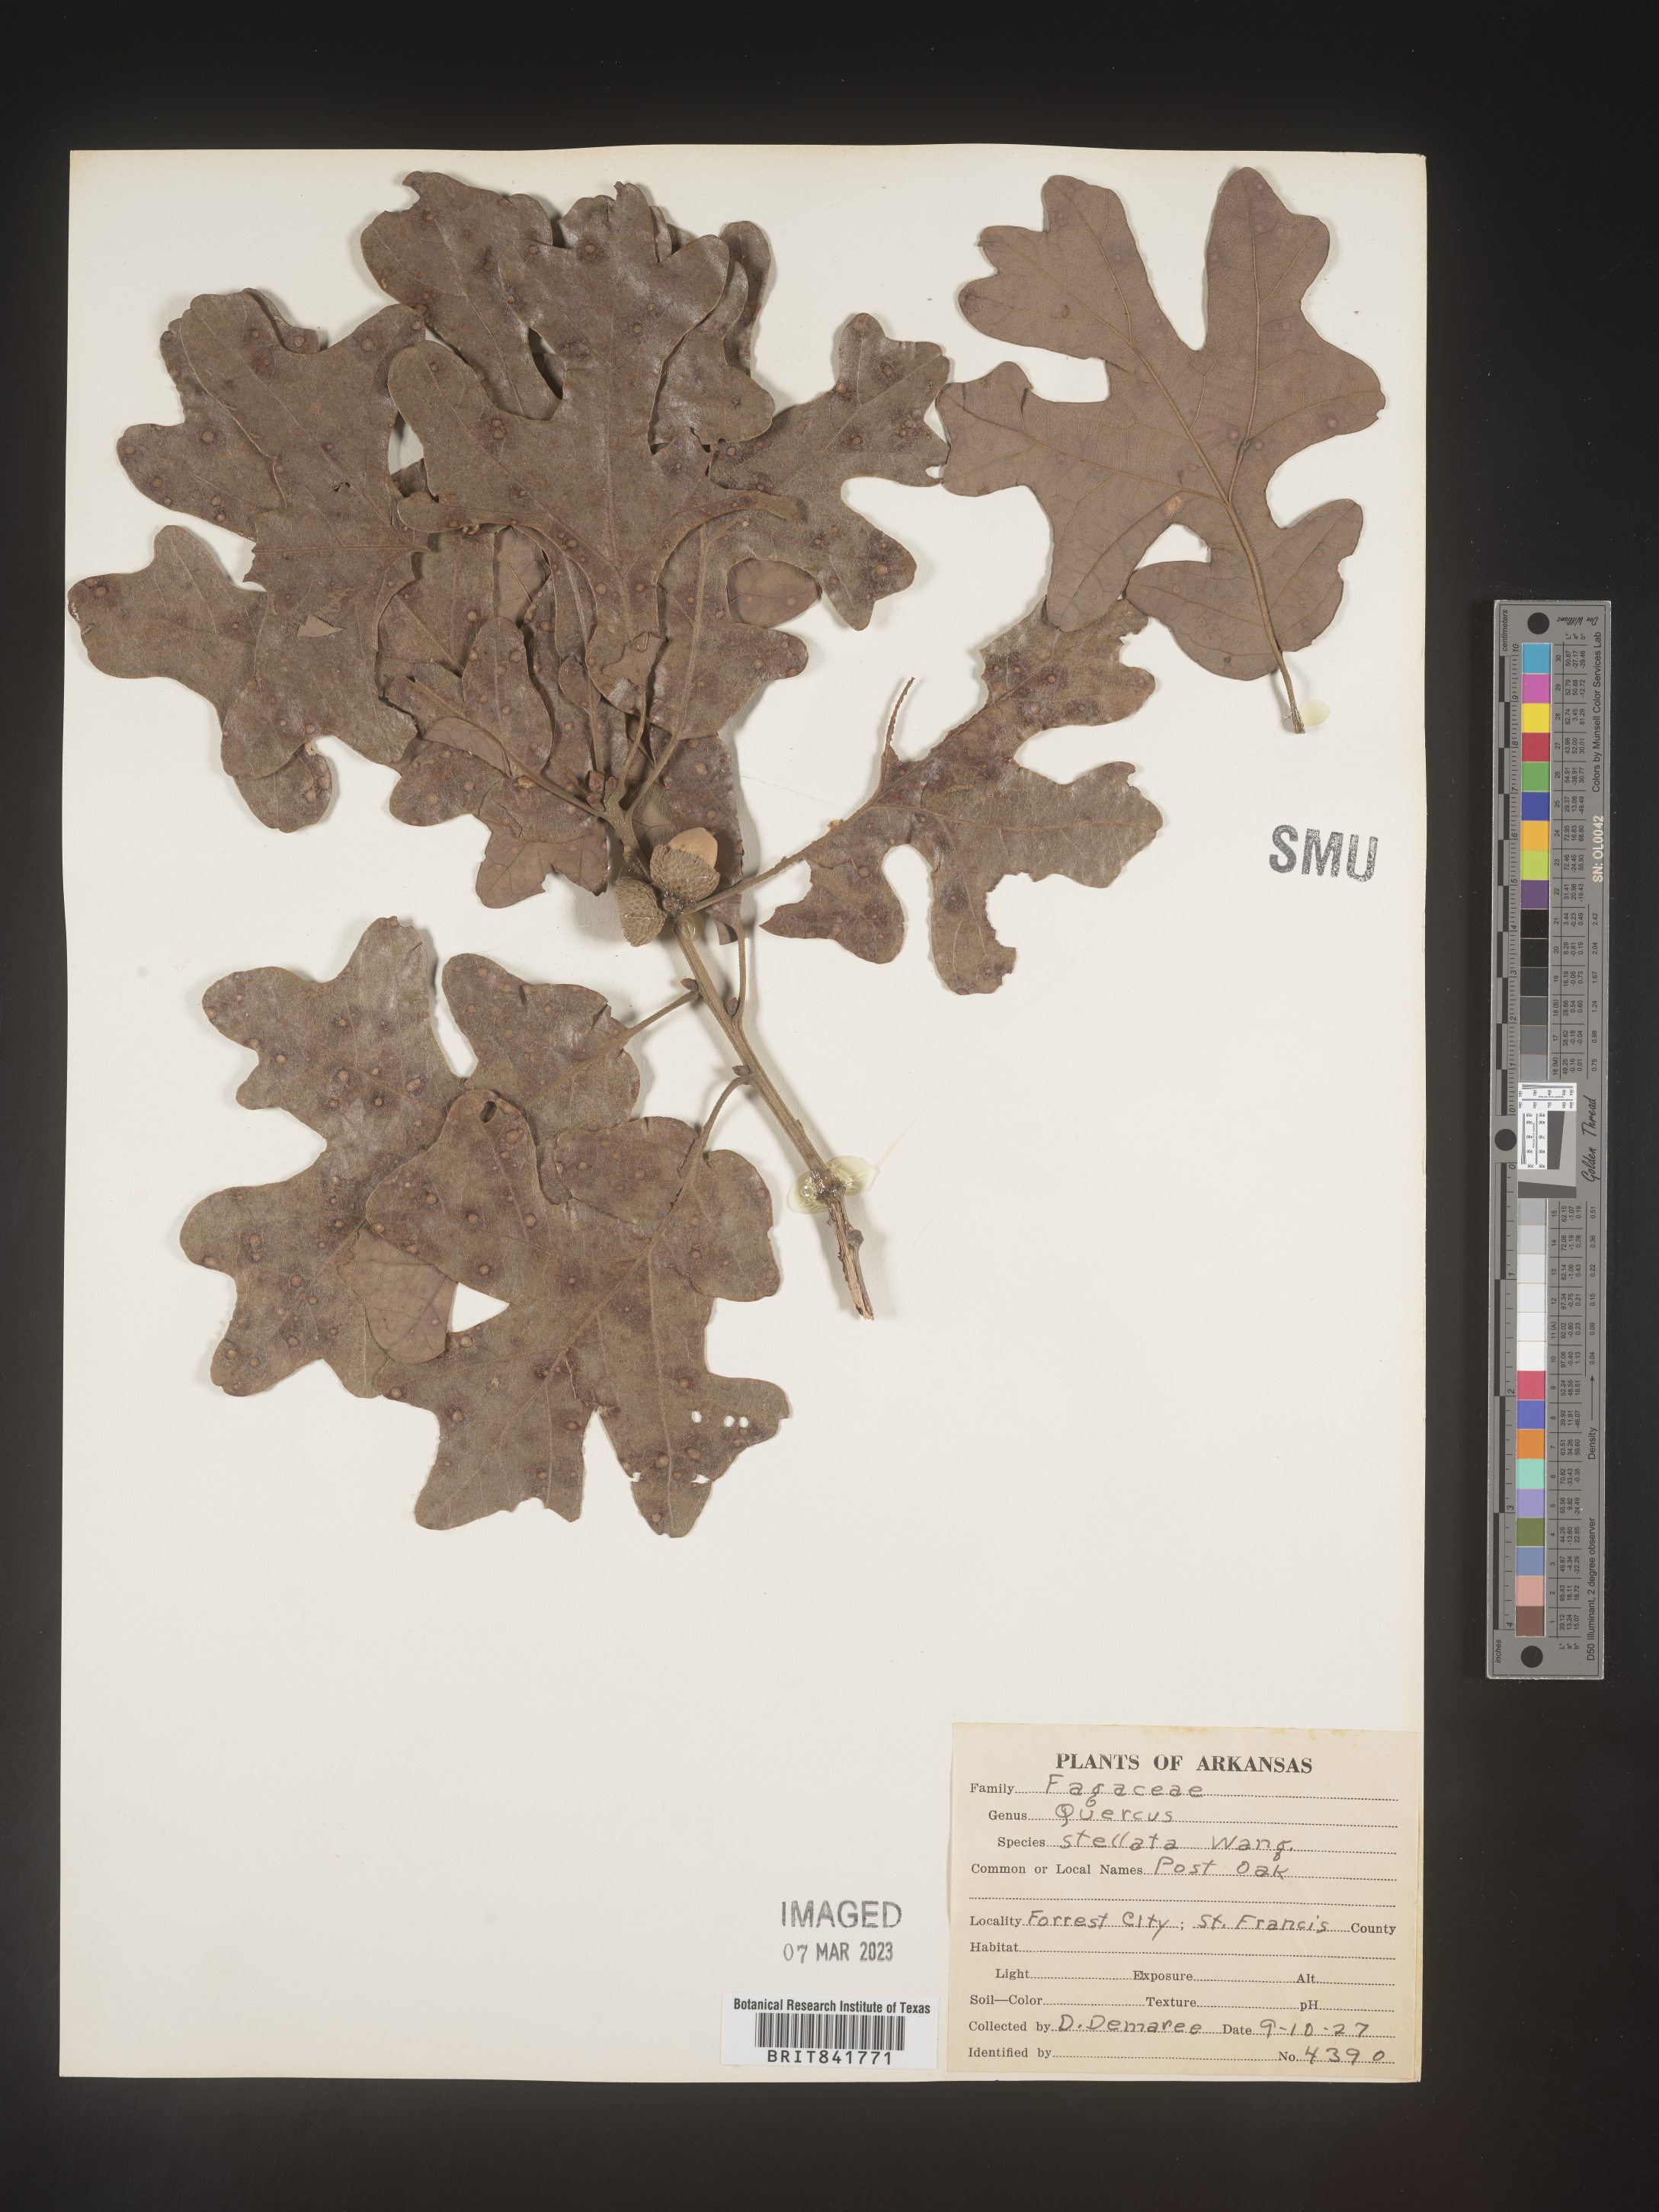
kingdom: Plantae
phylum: Tracheophyta
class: Magnoliopsida
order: Fagales
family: Fagaceae
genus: Quercus
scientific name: Quercus stellata
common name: Post oak
